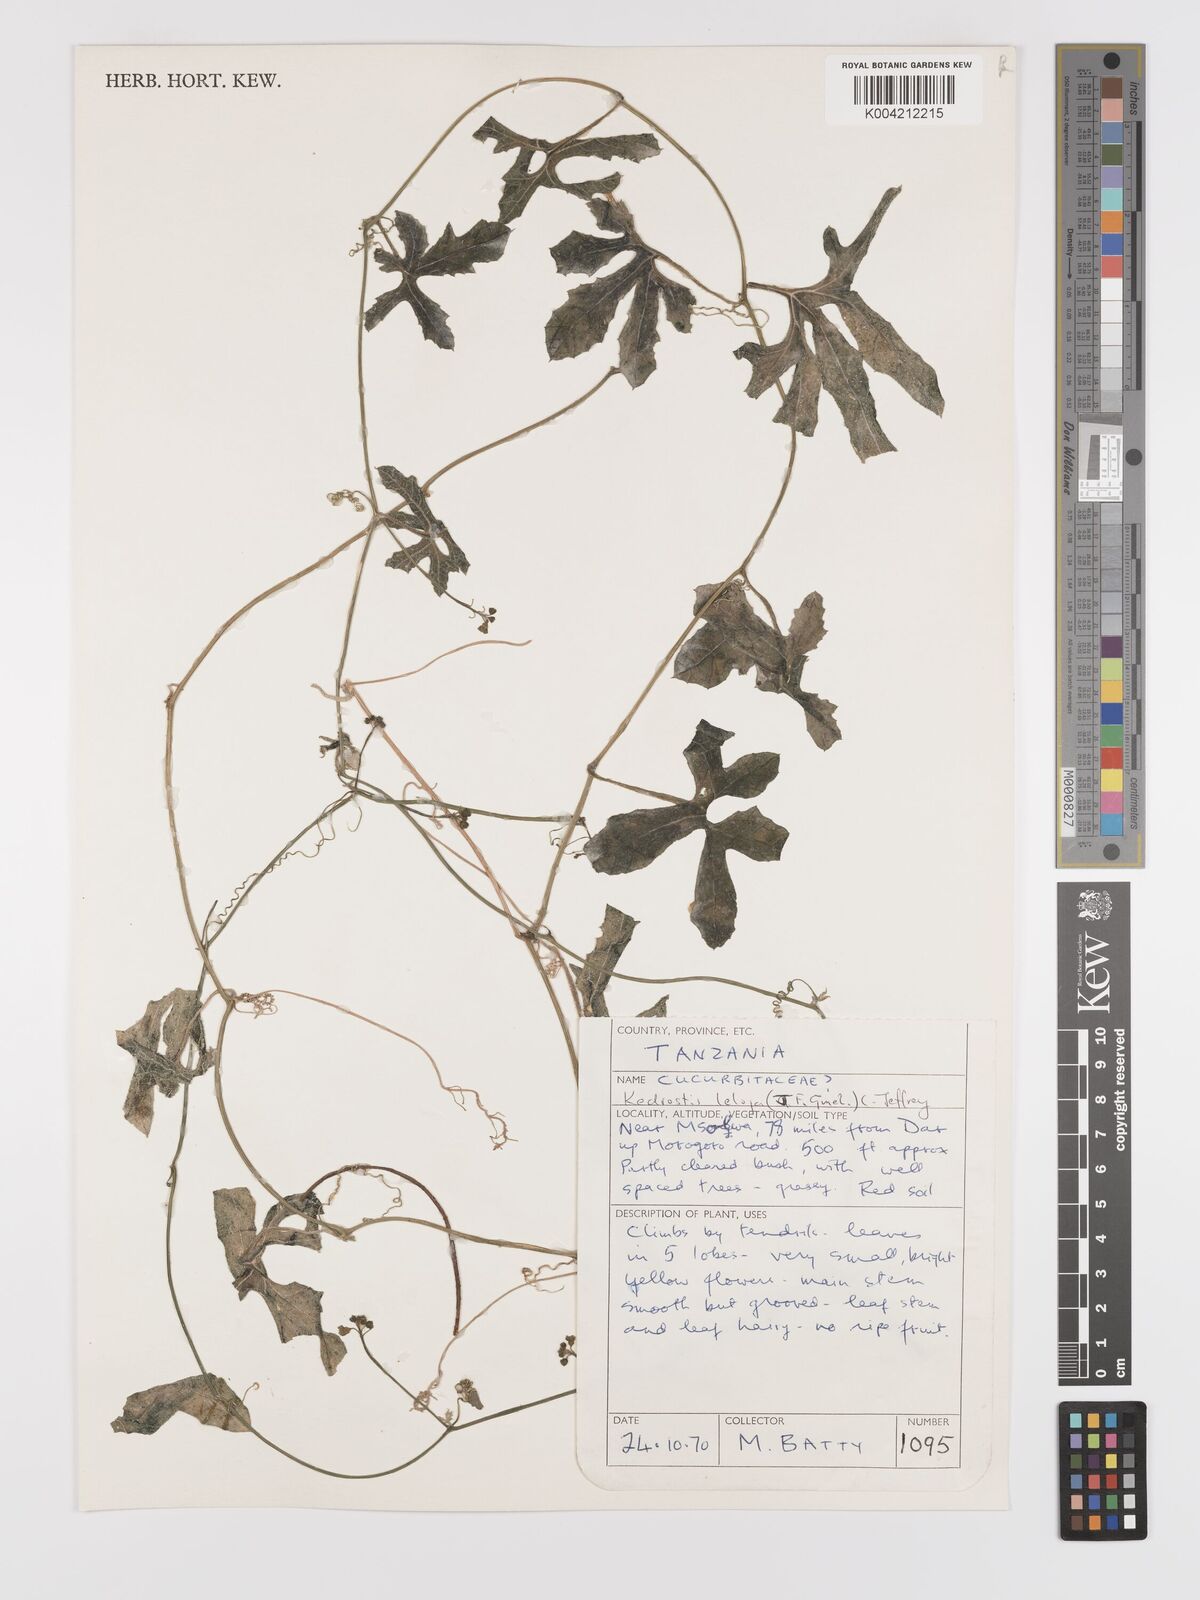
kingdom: Plantae
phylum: Tracheophyta
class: Magnoliopsida
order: Cucurbitales
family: Cucurbitaceae
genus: Kedrostis
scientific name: Kedrostis abdallae
